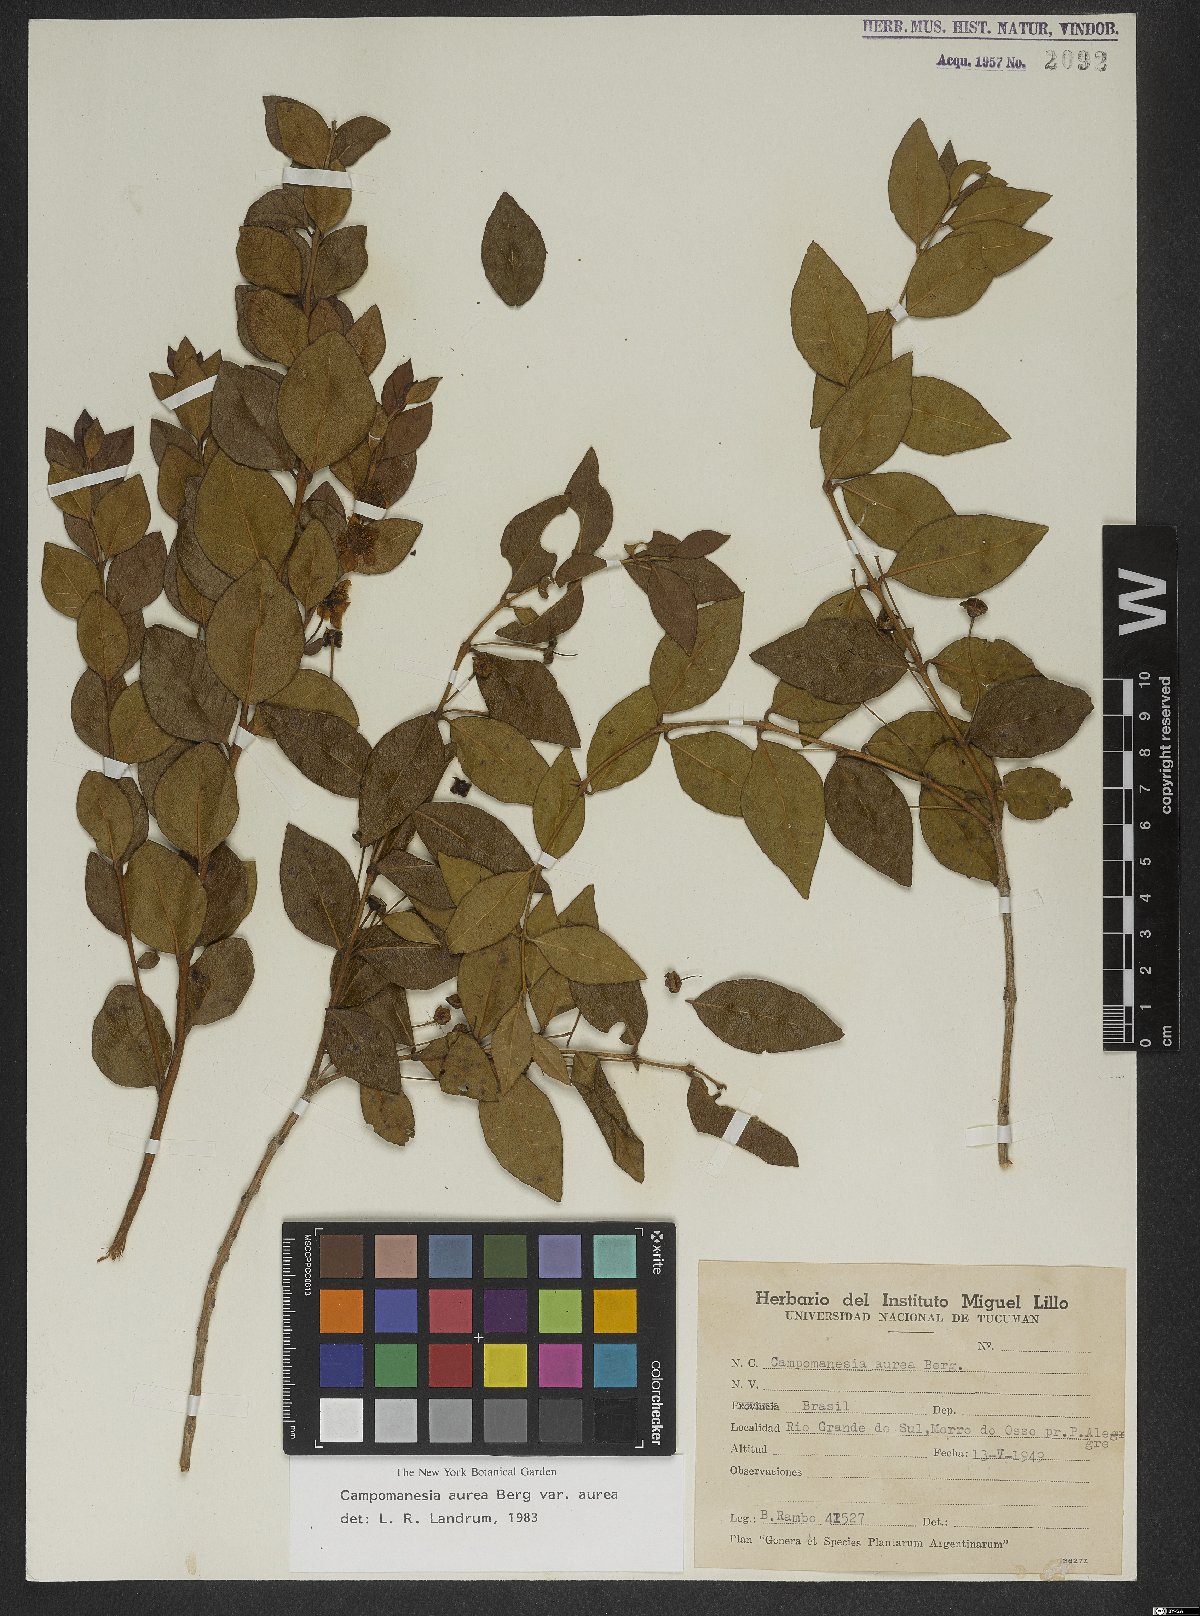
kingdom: Plantae
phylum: Tracheophyta
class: Magnoliopsida
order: Myrtales
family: Myrtaceae
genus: Campomanesia
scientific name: Campomanesia aurea
